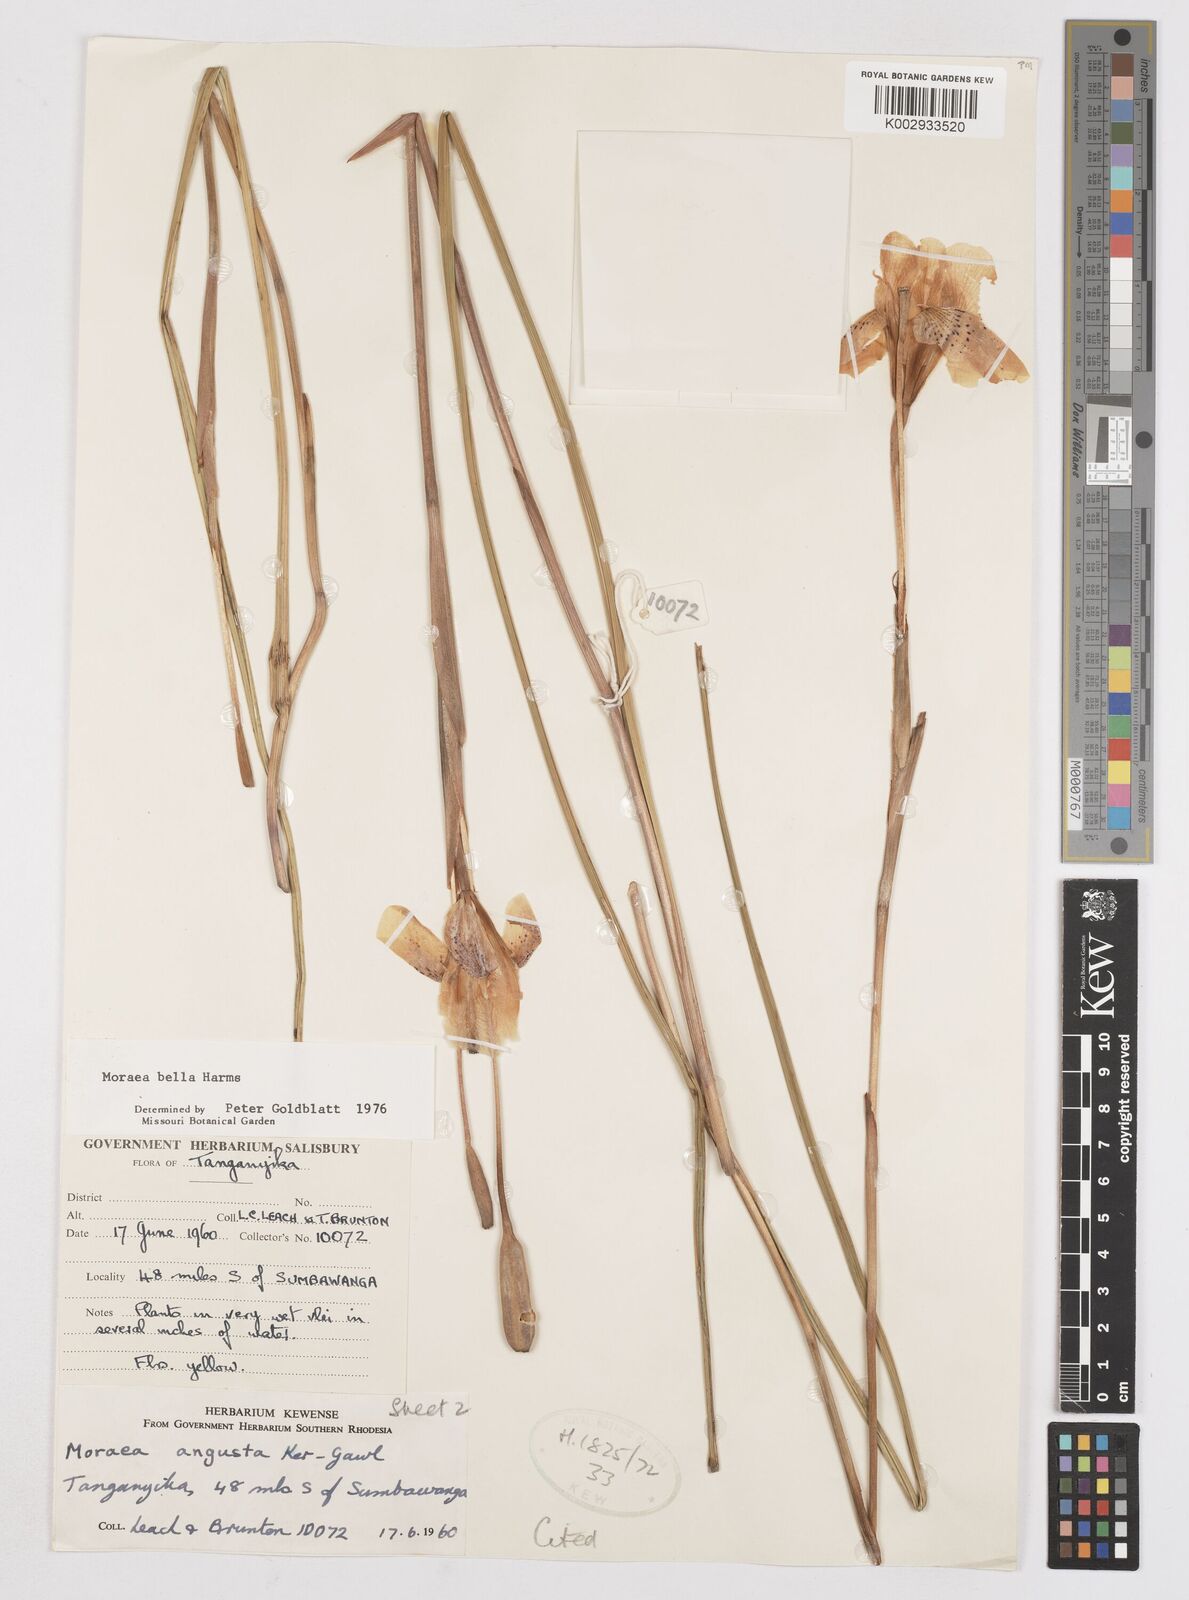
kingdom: Plantae
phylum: Tracheophyta
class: Liliopsida
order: Asparagales
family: Iridaceae
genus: Moraea
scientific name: Moraea bella
